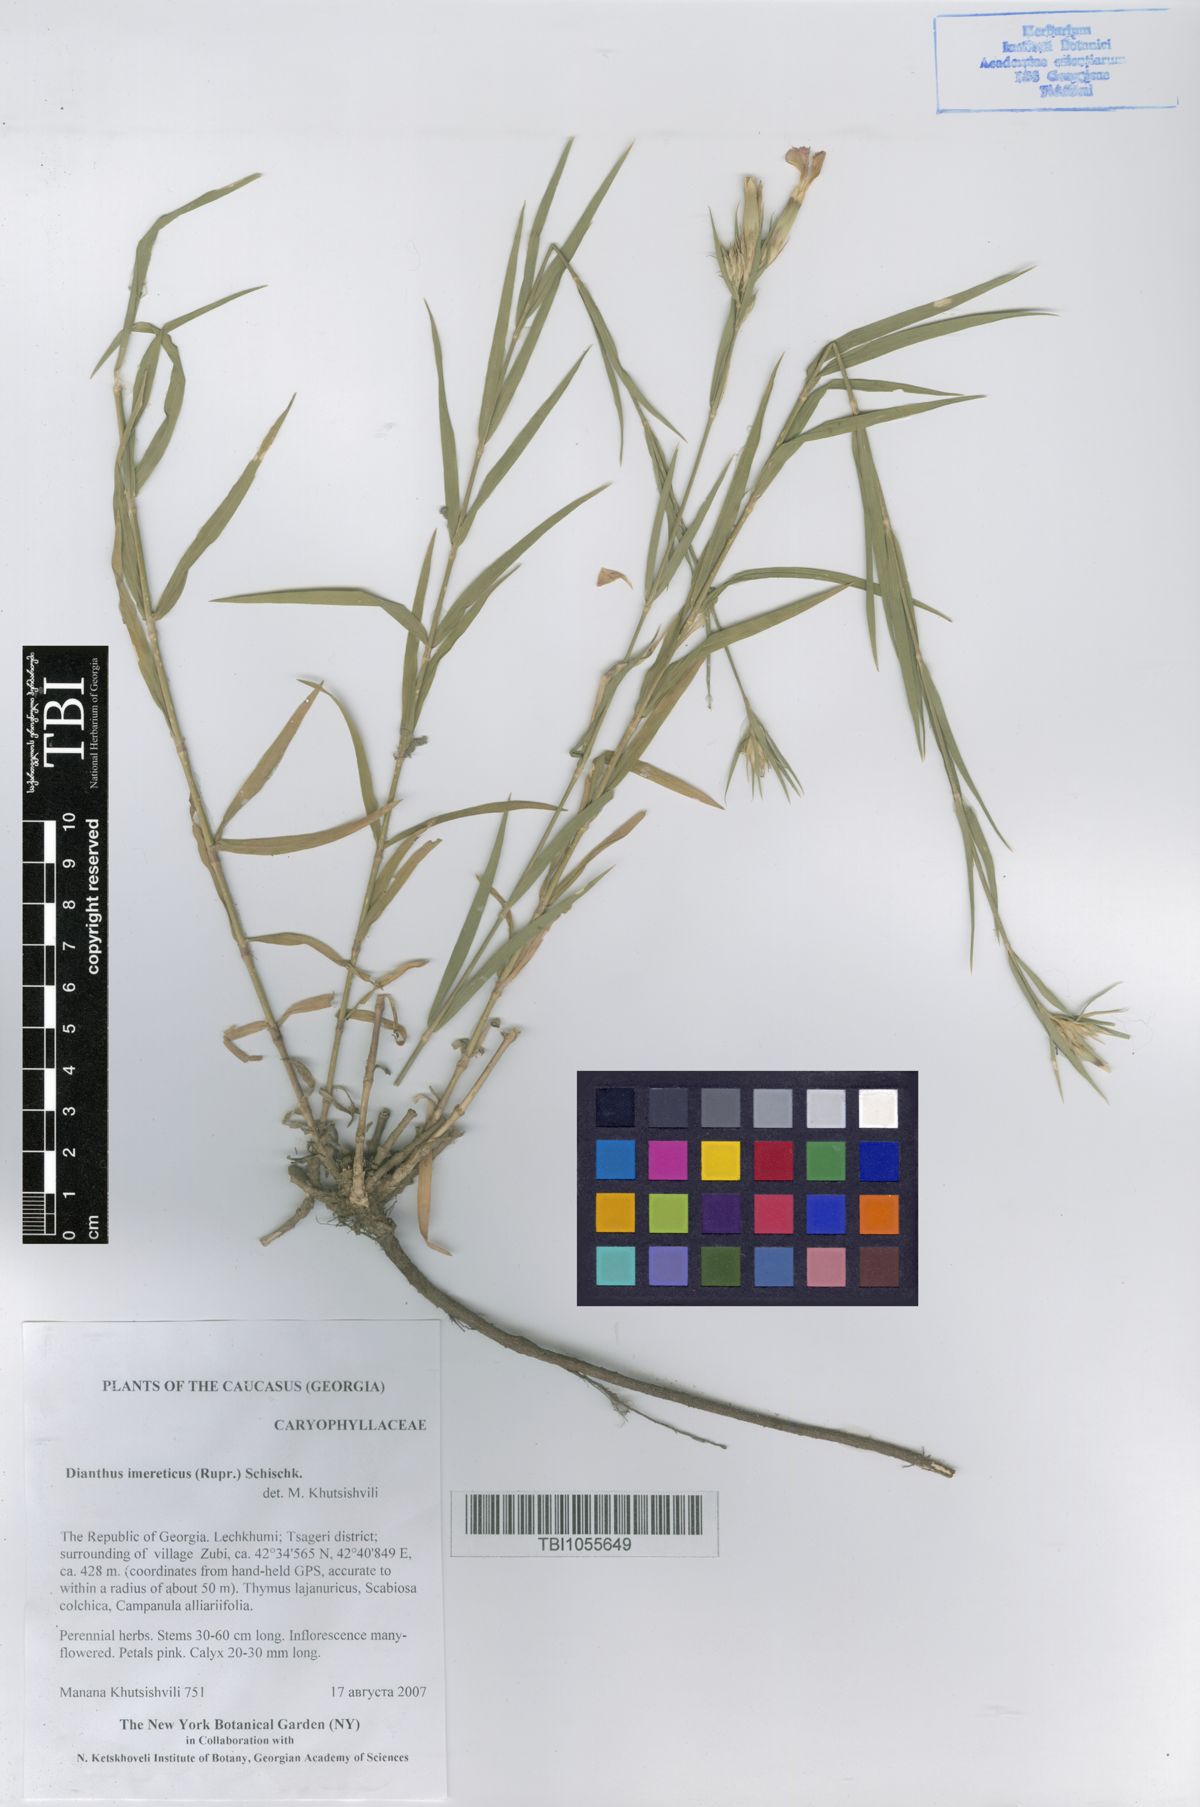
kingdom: Plantae
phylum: Tracheophyta
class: Magnoliopsida
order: Caryophyllales
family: Caryophyllaceae
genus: Dianthus
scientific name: Dianthus imereticus
